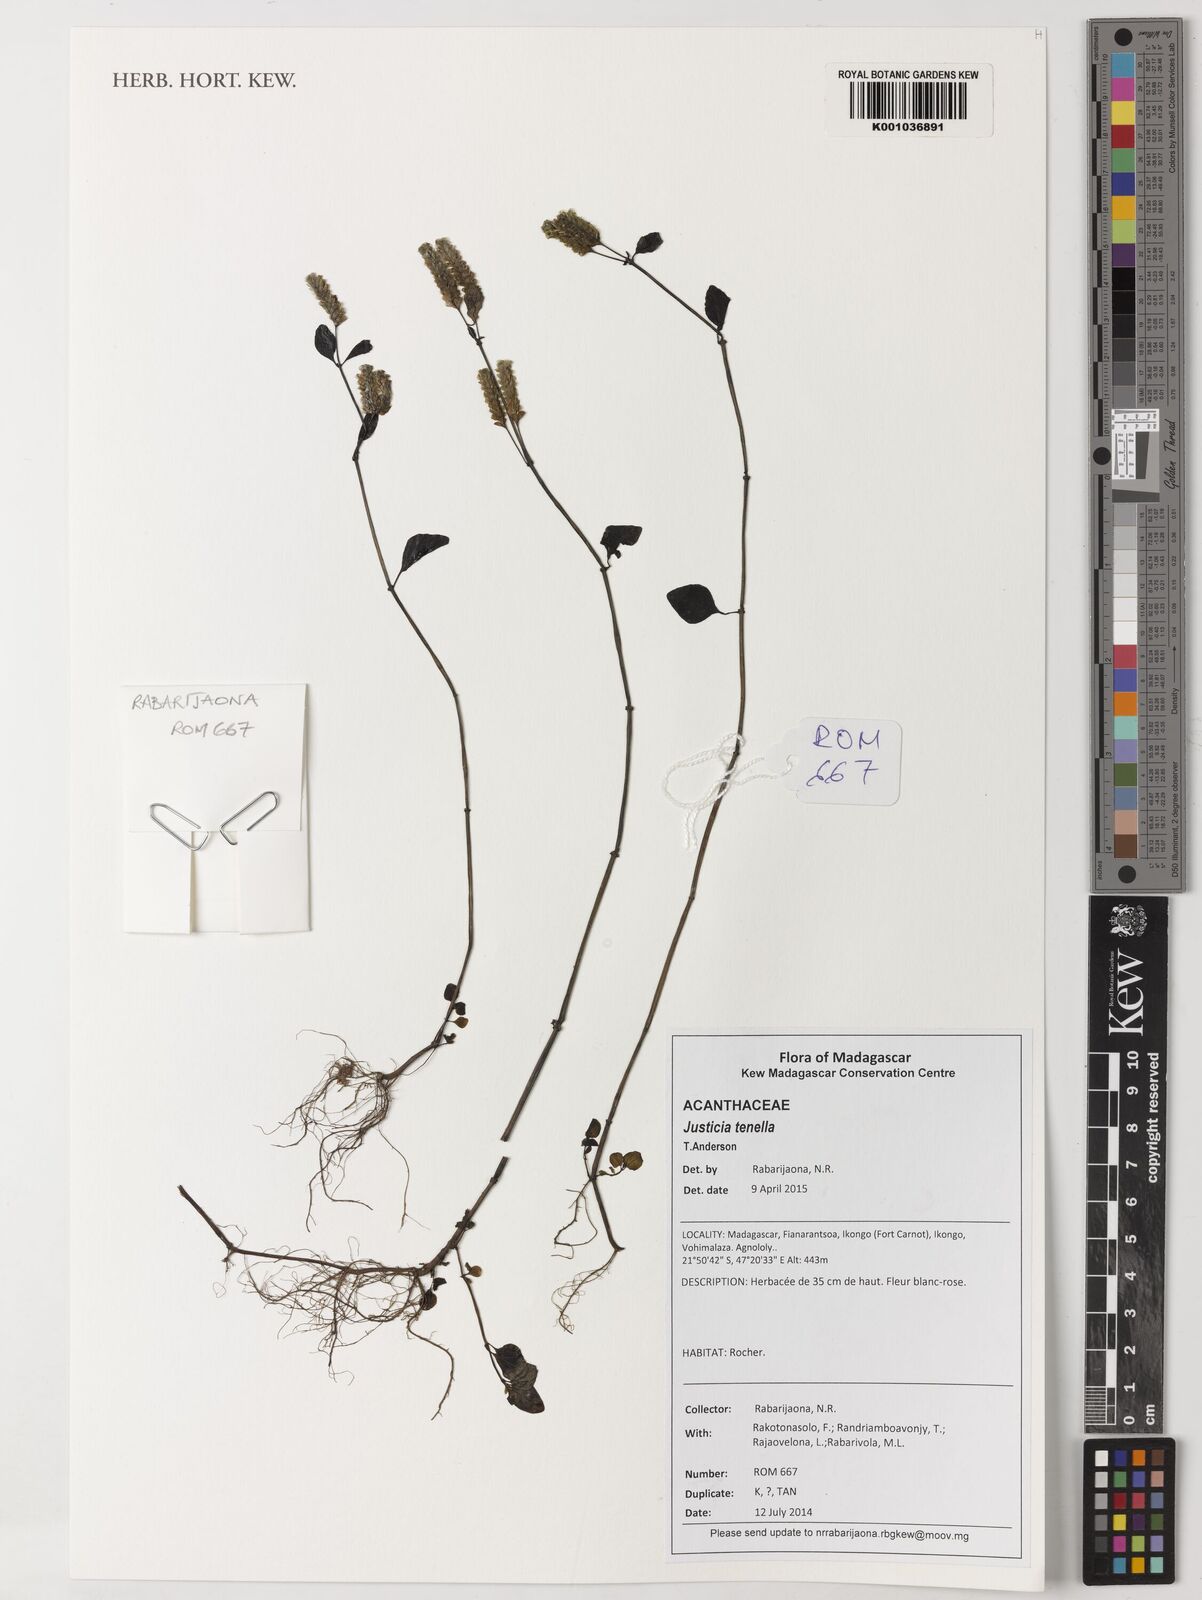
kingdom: Plantae
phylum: Tracheophyta
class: Magnoliopsida
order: Lamiales
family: Acanthaceae
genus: Anisostachya
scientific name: Anisostachya tenella
